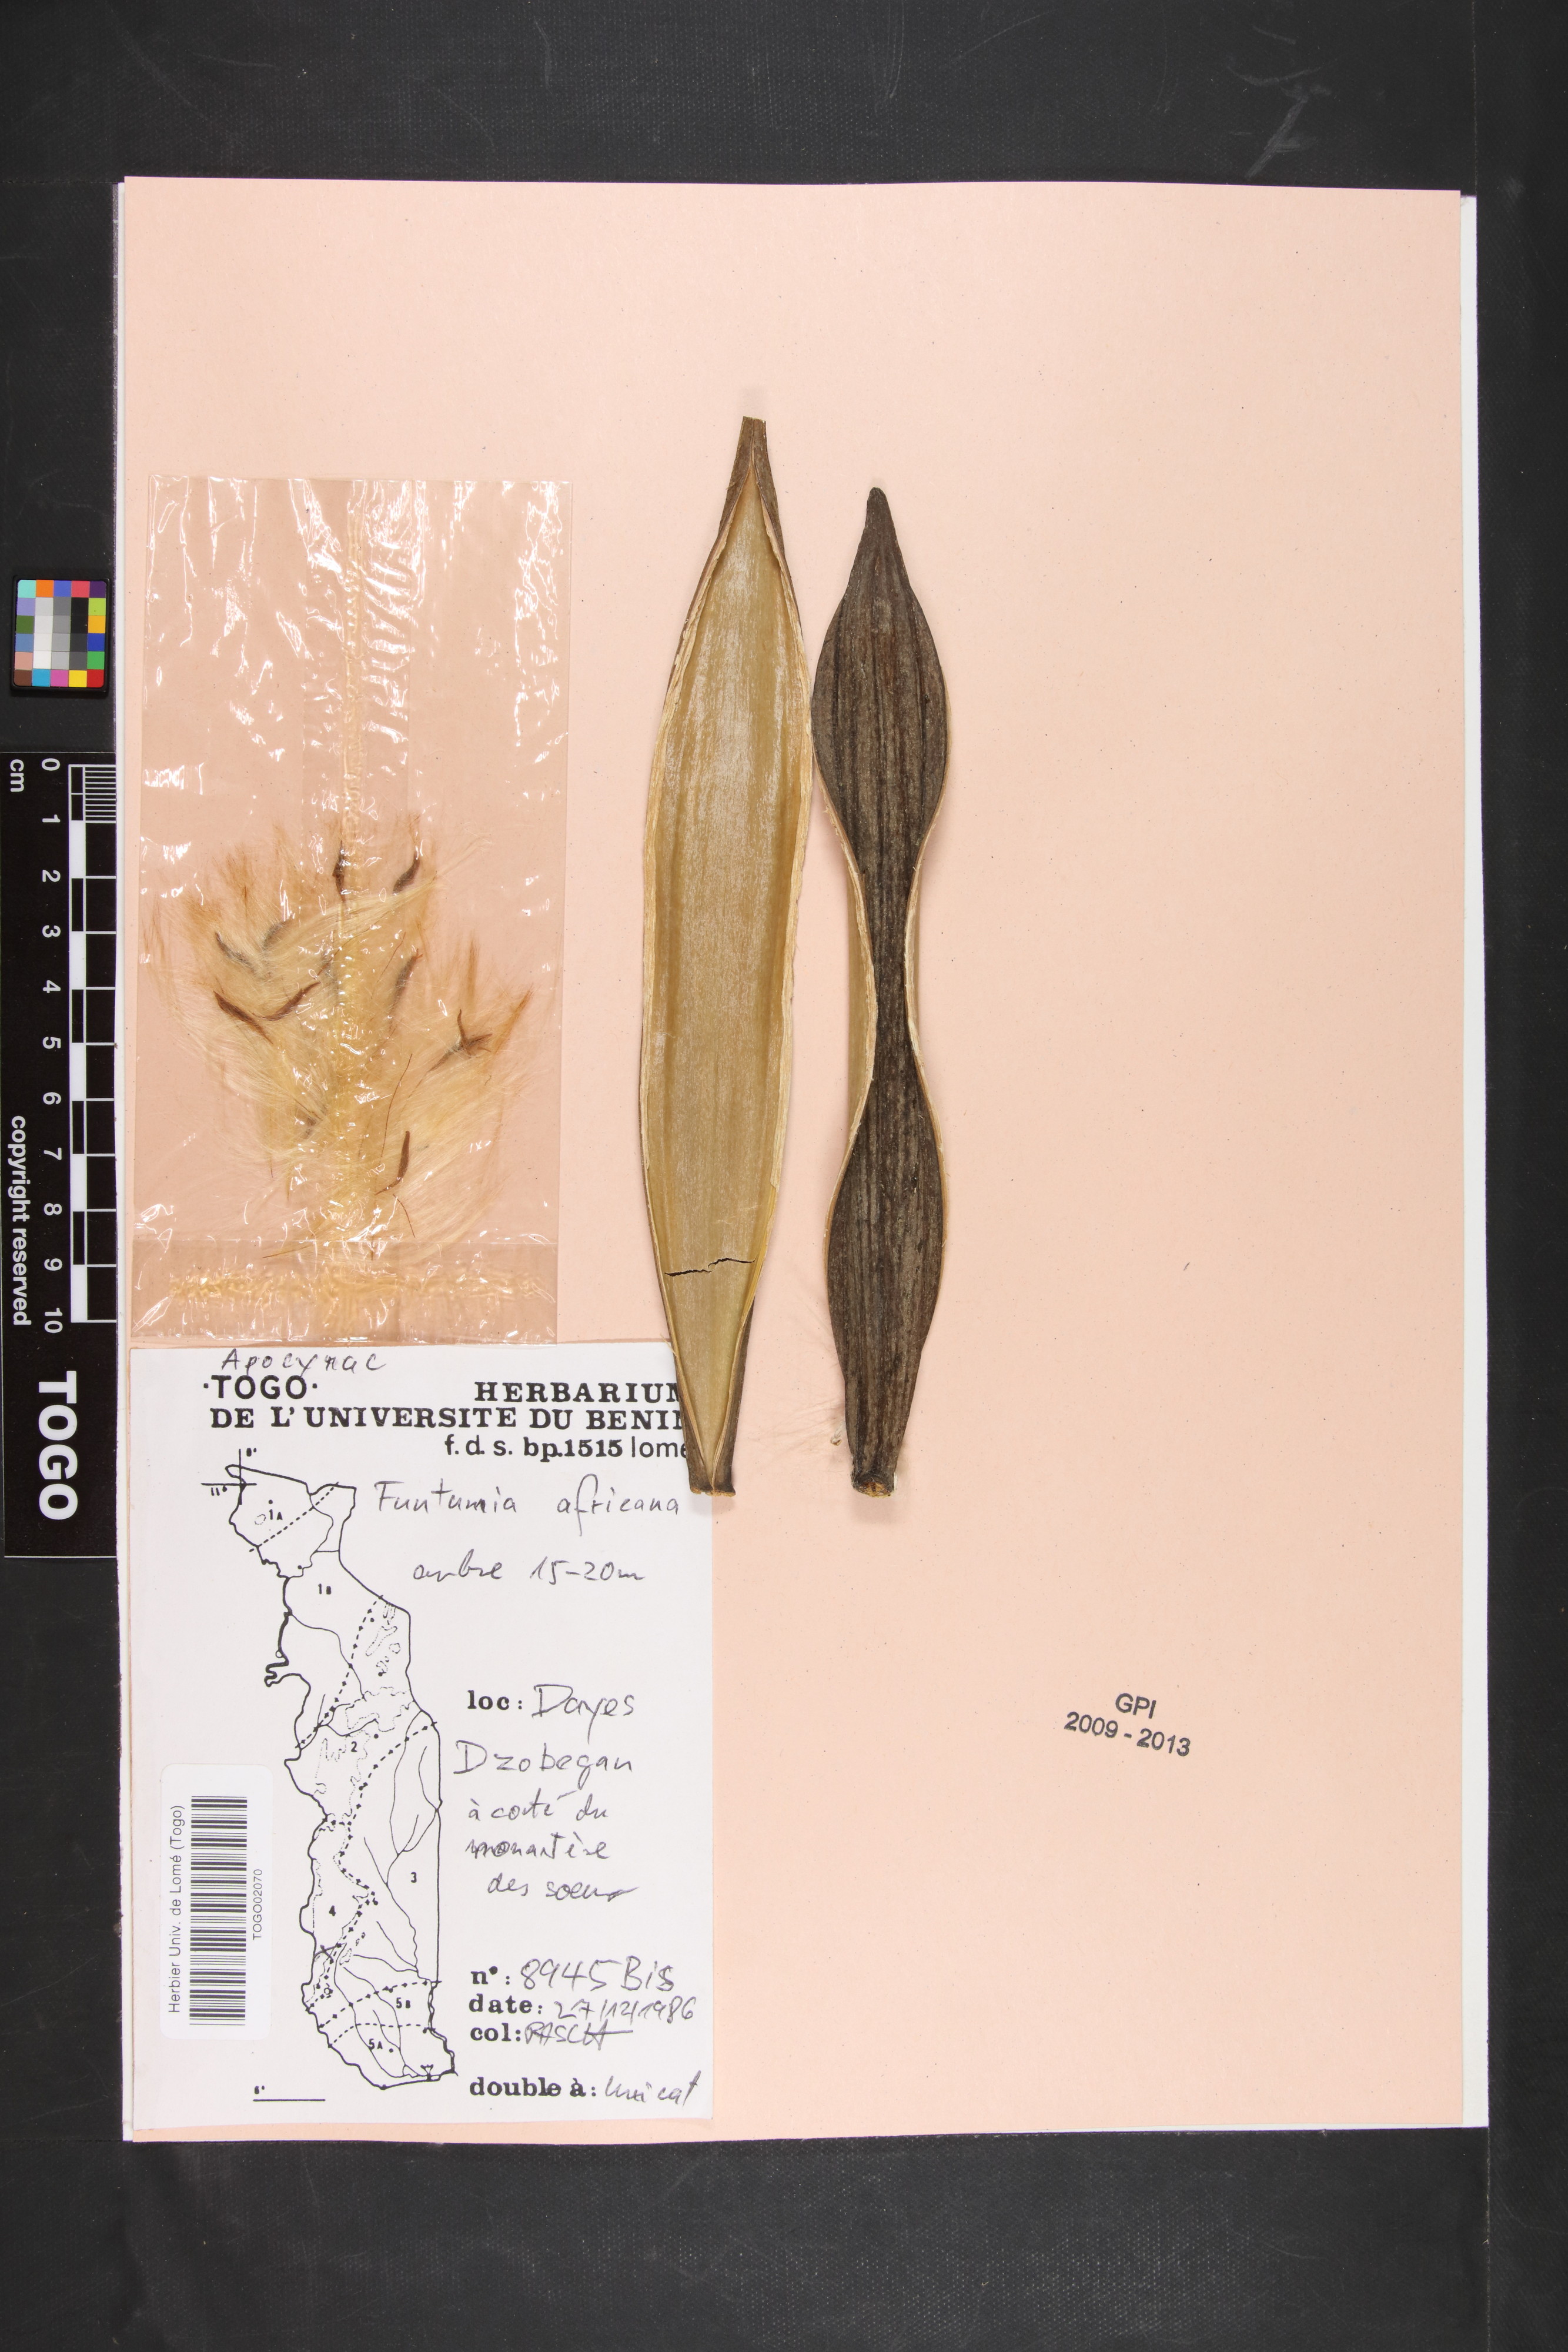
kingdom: Plantae
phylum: Tracheophyta
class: Magnoliopsida
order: Gentianales
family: Apocynaceae
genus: Funtumia
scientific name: Funtumia africana
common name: Lagos-rubber
